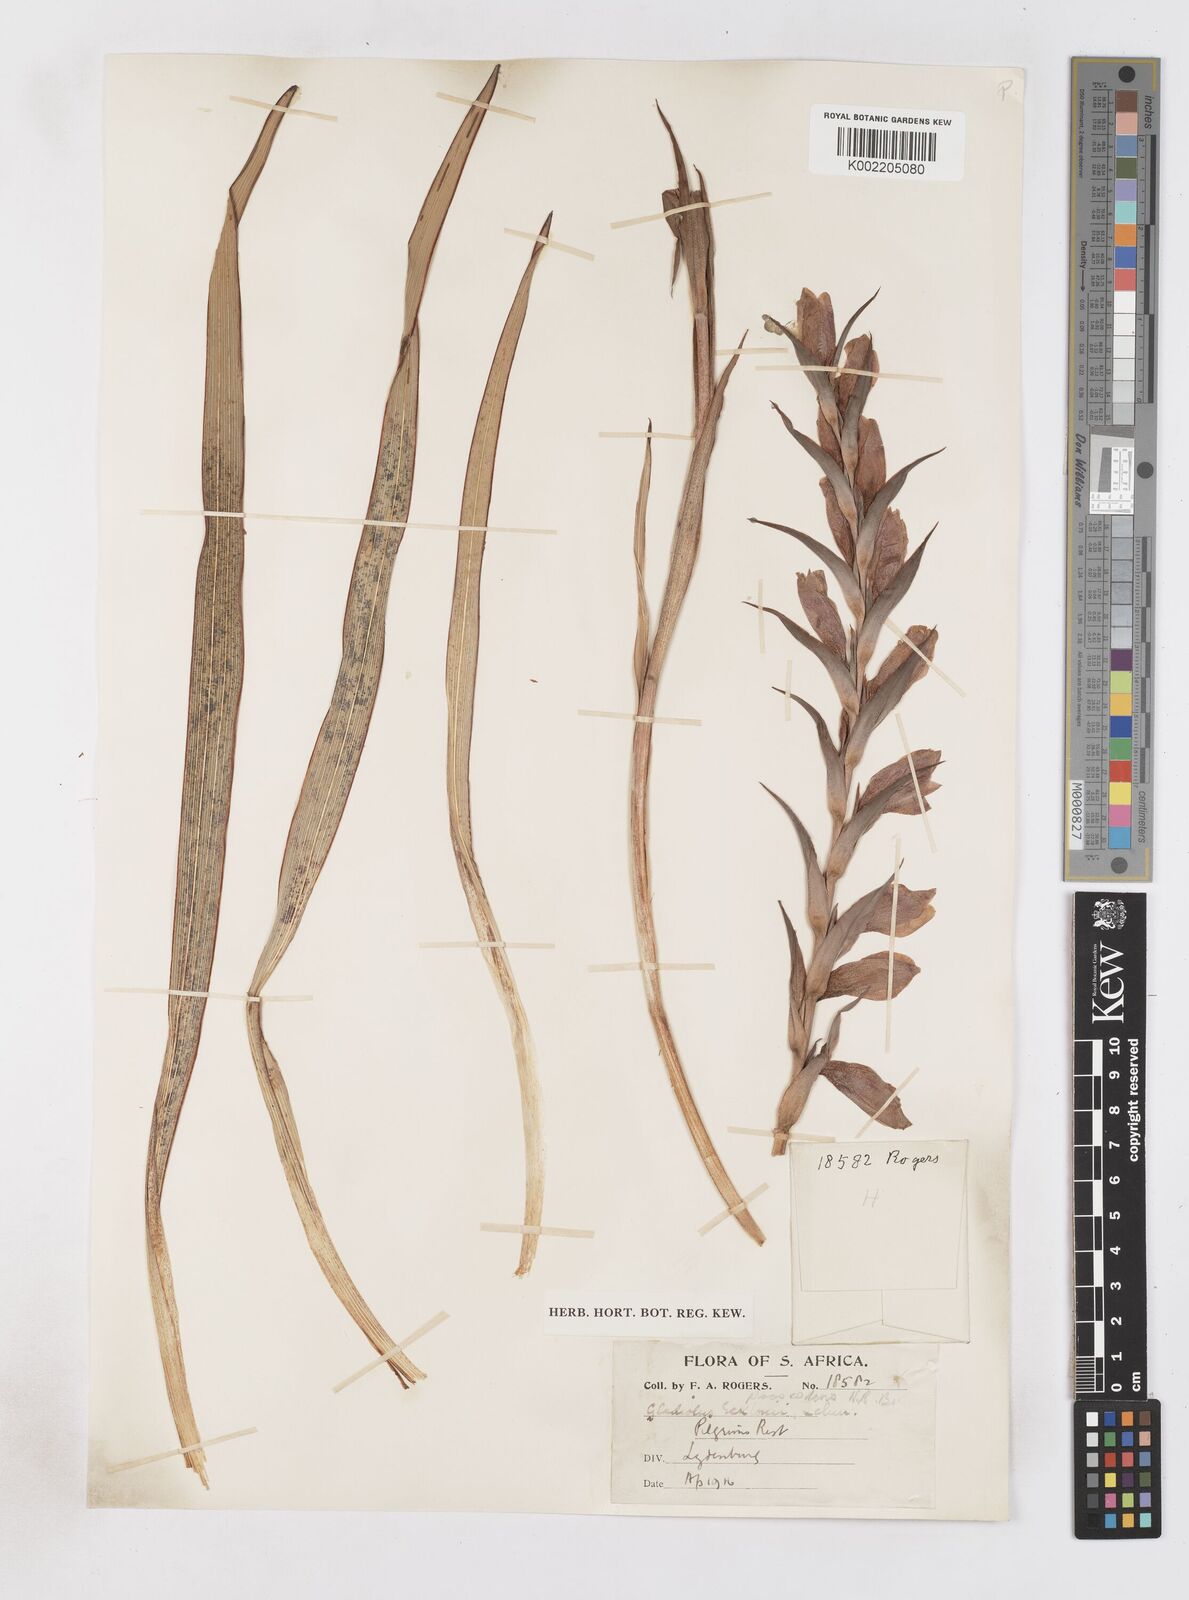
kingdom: Plantae
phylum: Tracheophyta
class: Liliopsida
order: Asparagales
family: Iridaceae
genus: Gladiolus
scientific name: Gladiolus ecklonii
